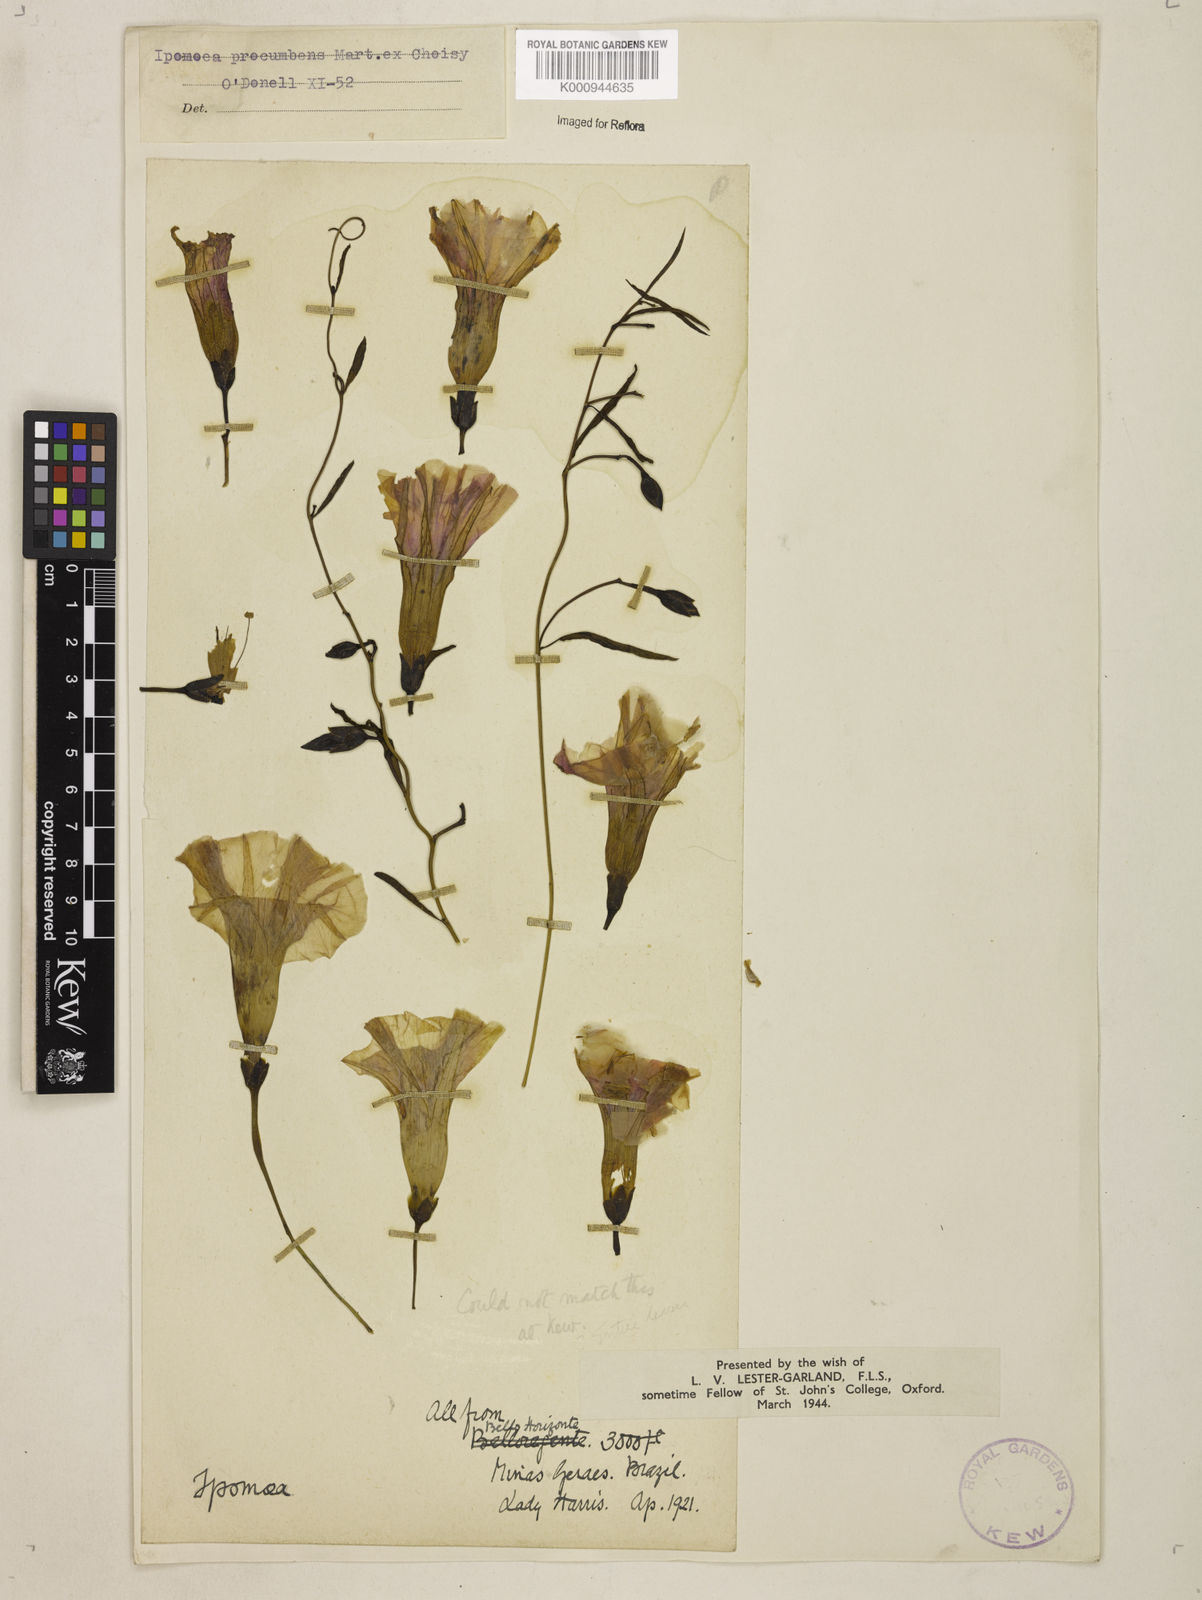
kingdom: Plantae
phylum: Tracheophyta
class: Magnoliopsida
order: Solanales
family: Convolvulaceae
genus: Ipomoea
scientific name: Ipomoea procumbens
